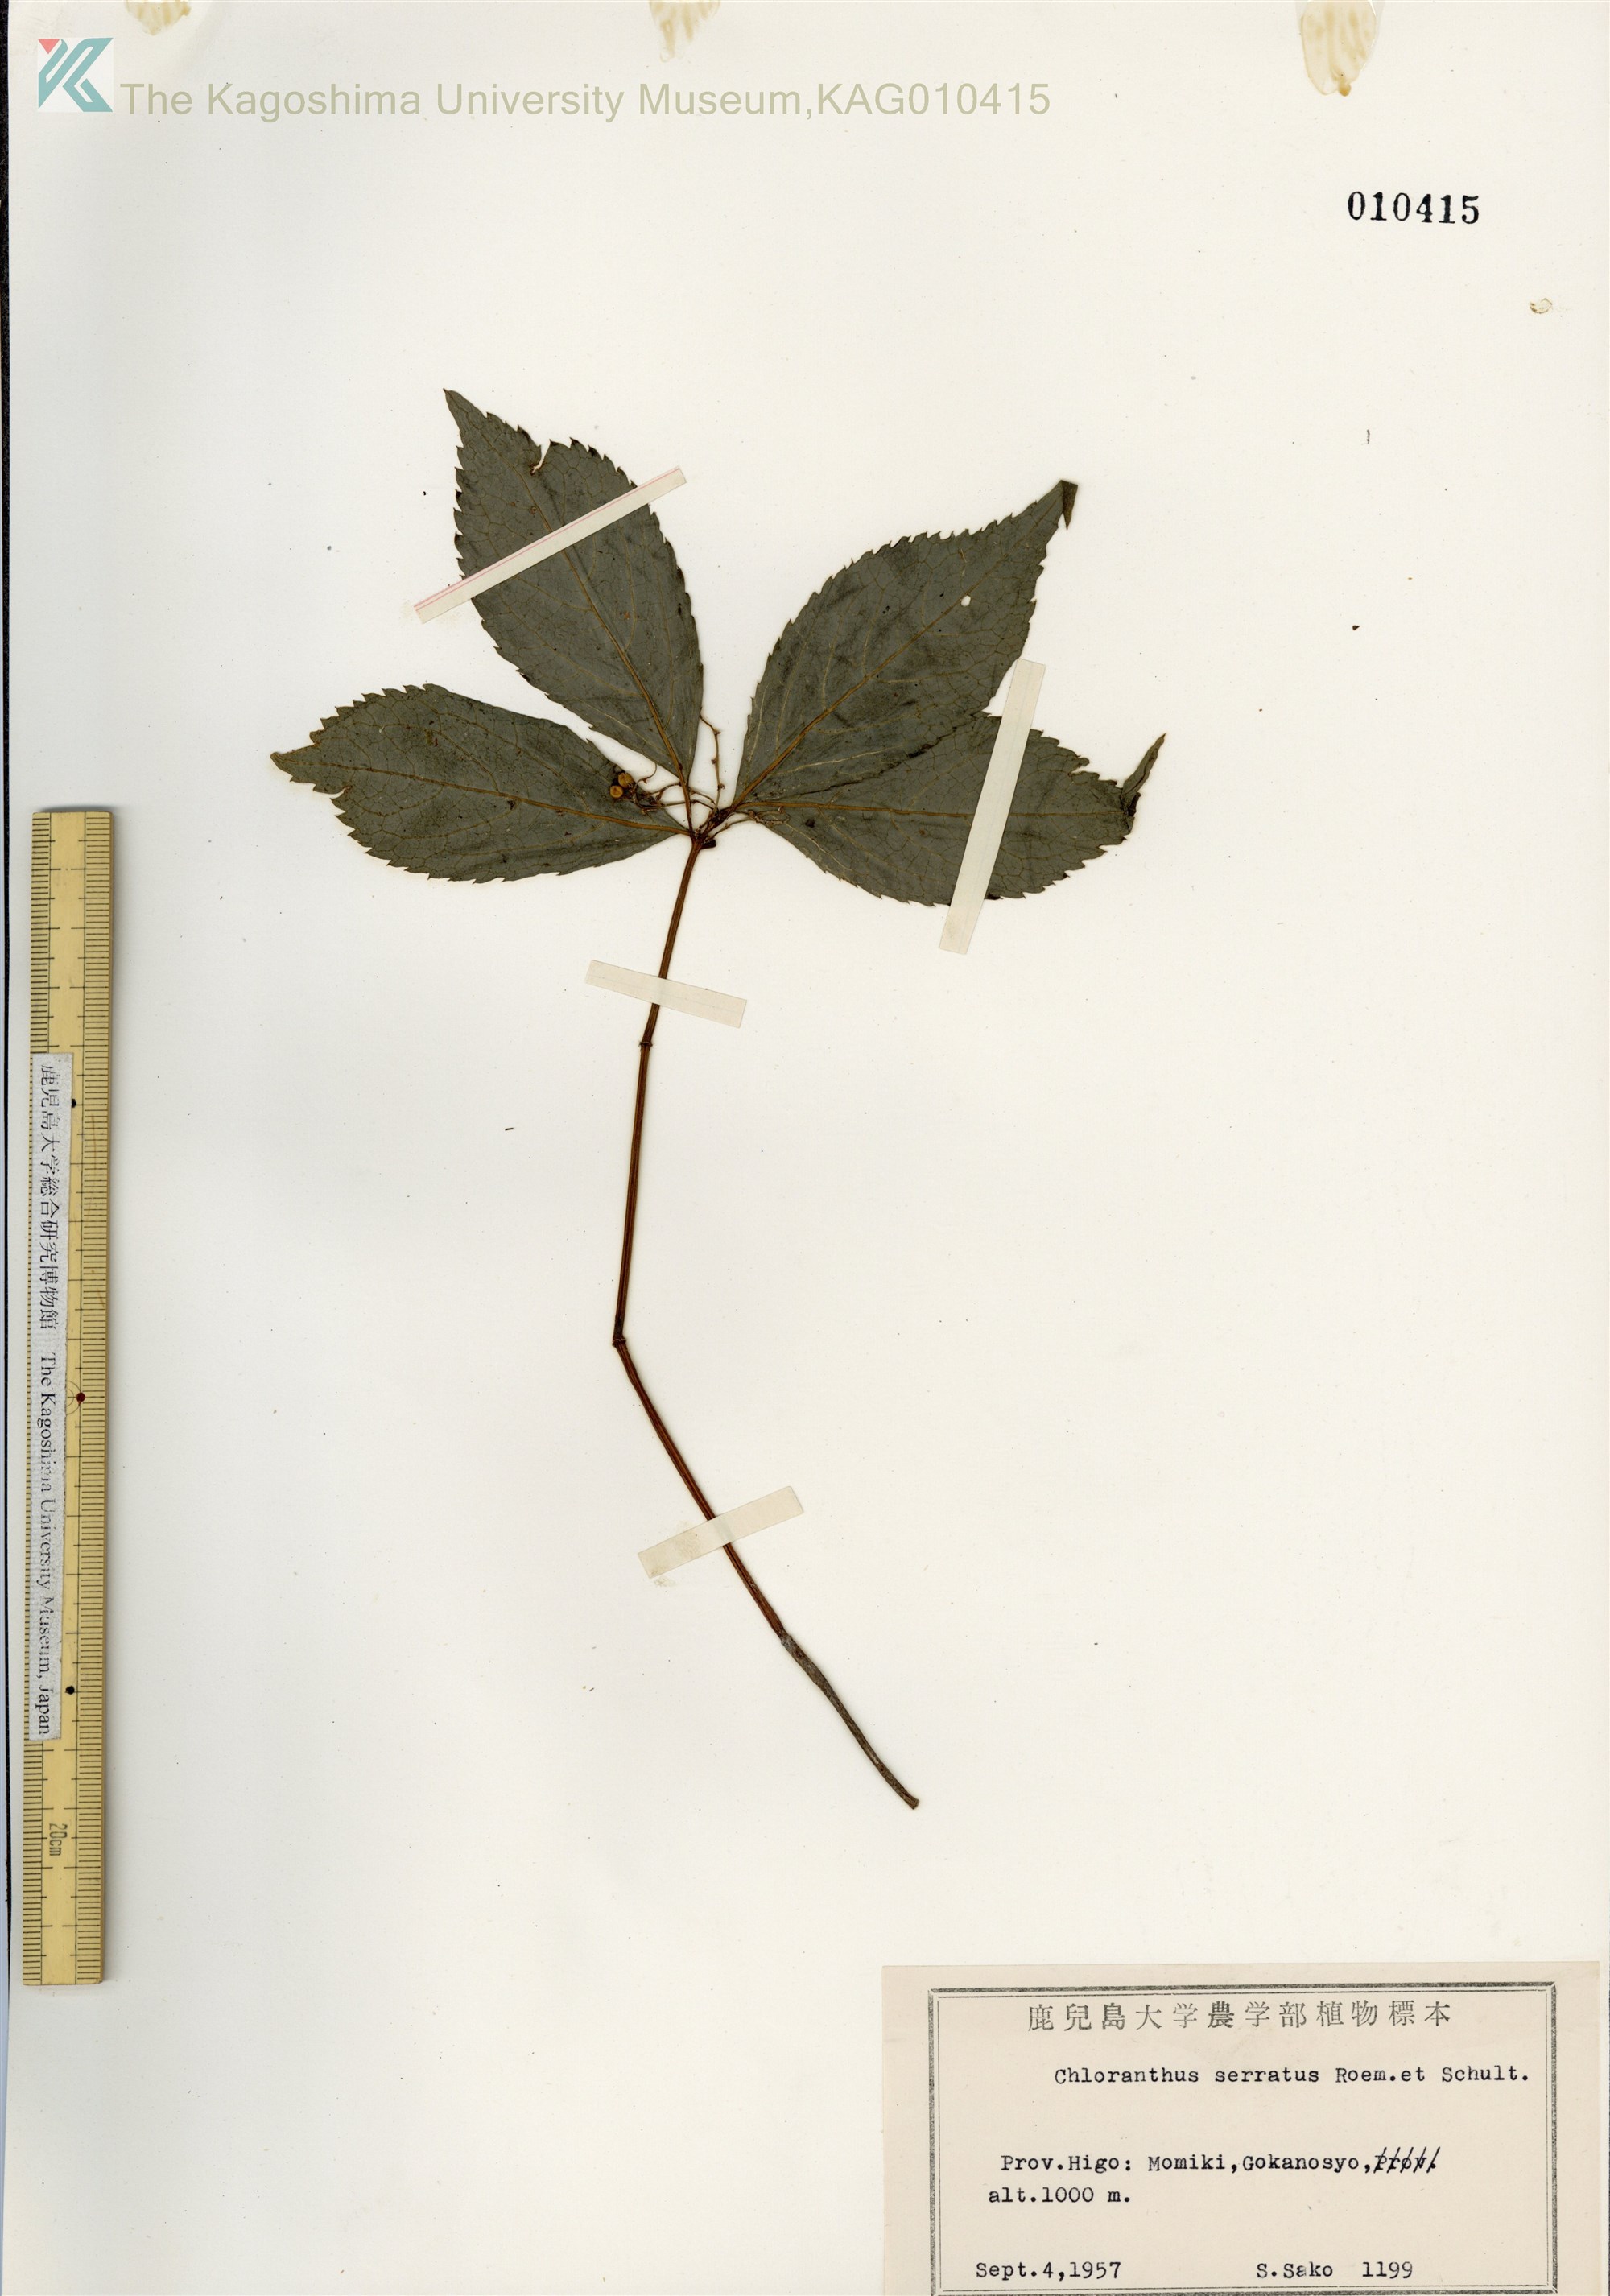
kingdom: Plantae
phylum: Tracheophyta
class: Magnoliopsida
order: Chloranthales
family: Chloranthaceae
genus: Chloranthus
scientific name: Chloranthus serratus
